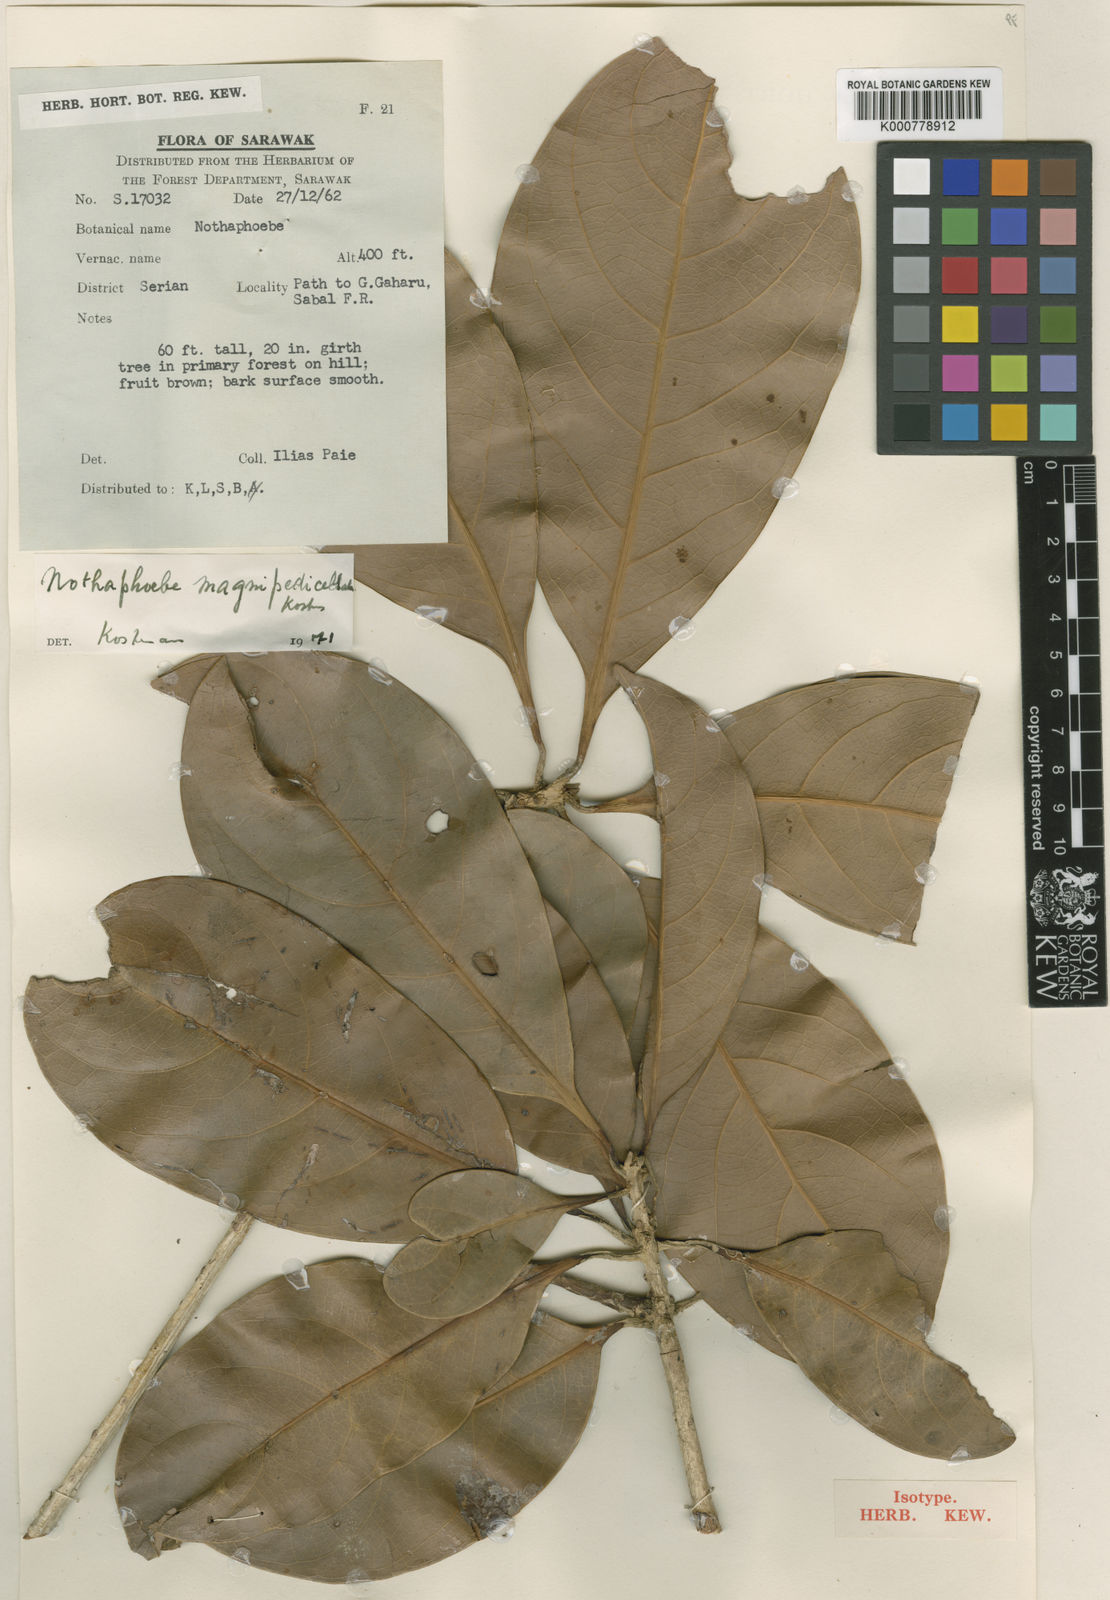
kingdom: Plantae
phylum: Tracheophyta
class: Magnoliopsida
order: Laurales
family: Lauraceae
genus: Nothaphoebe
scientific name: Nothaphoebe
